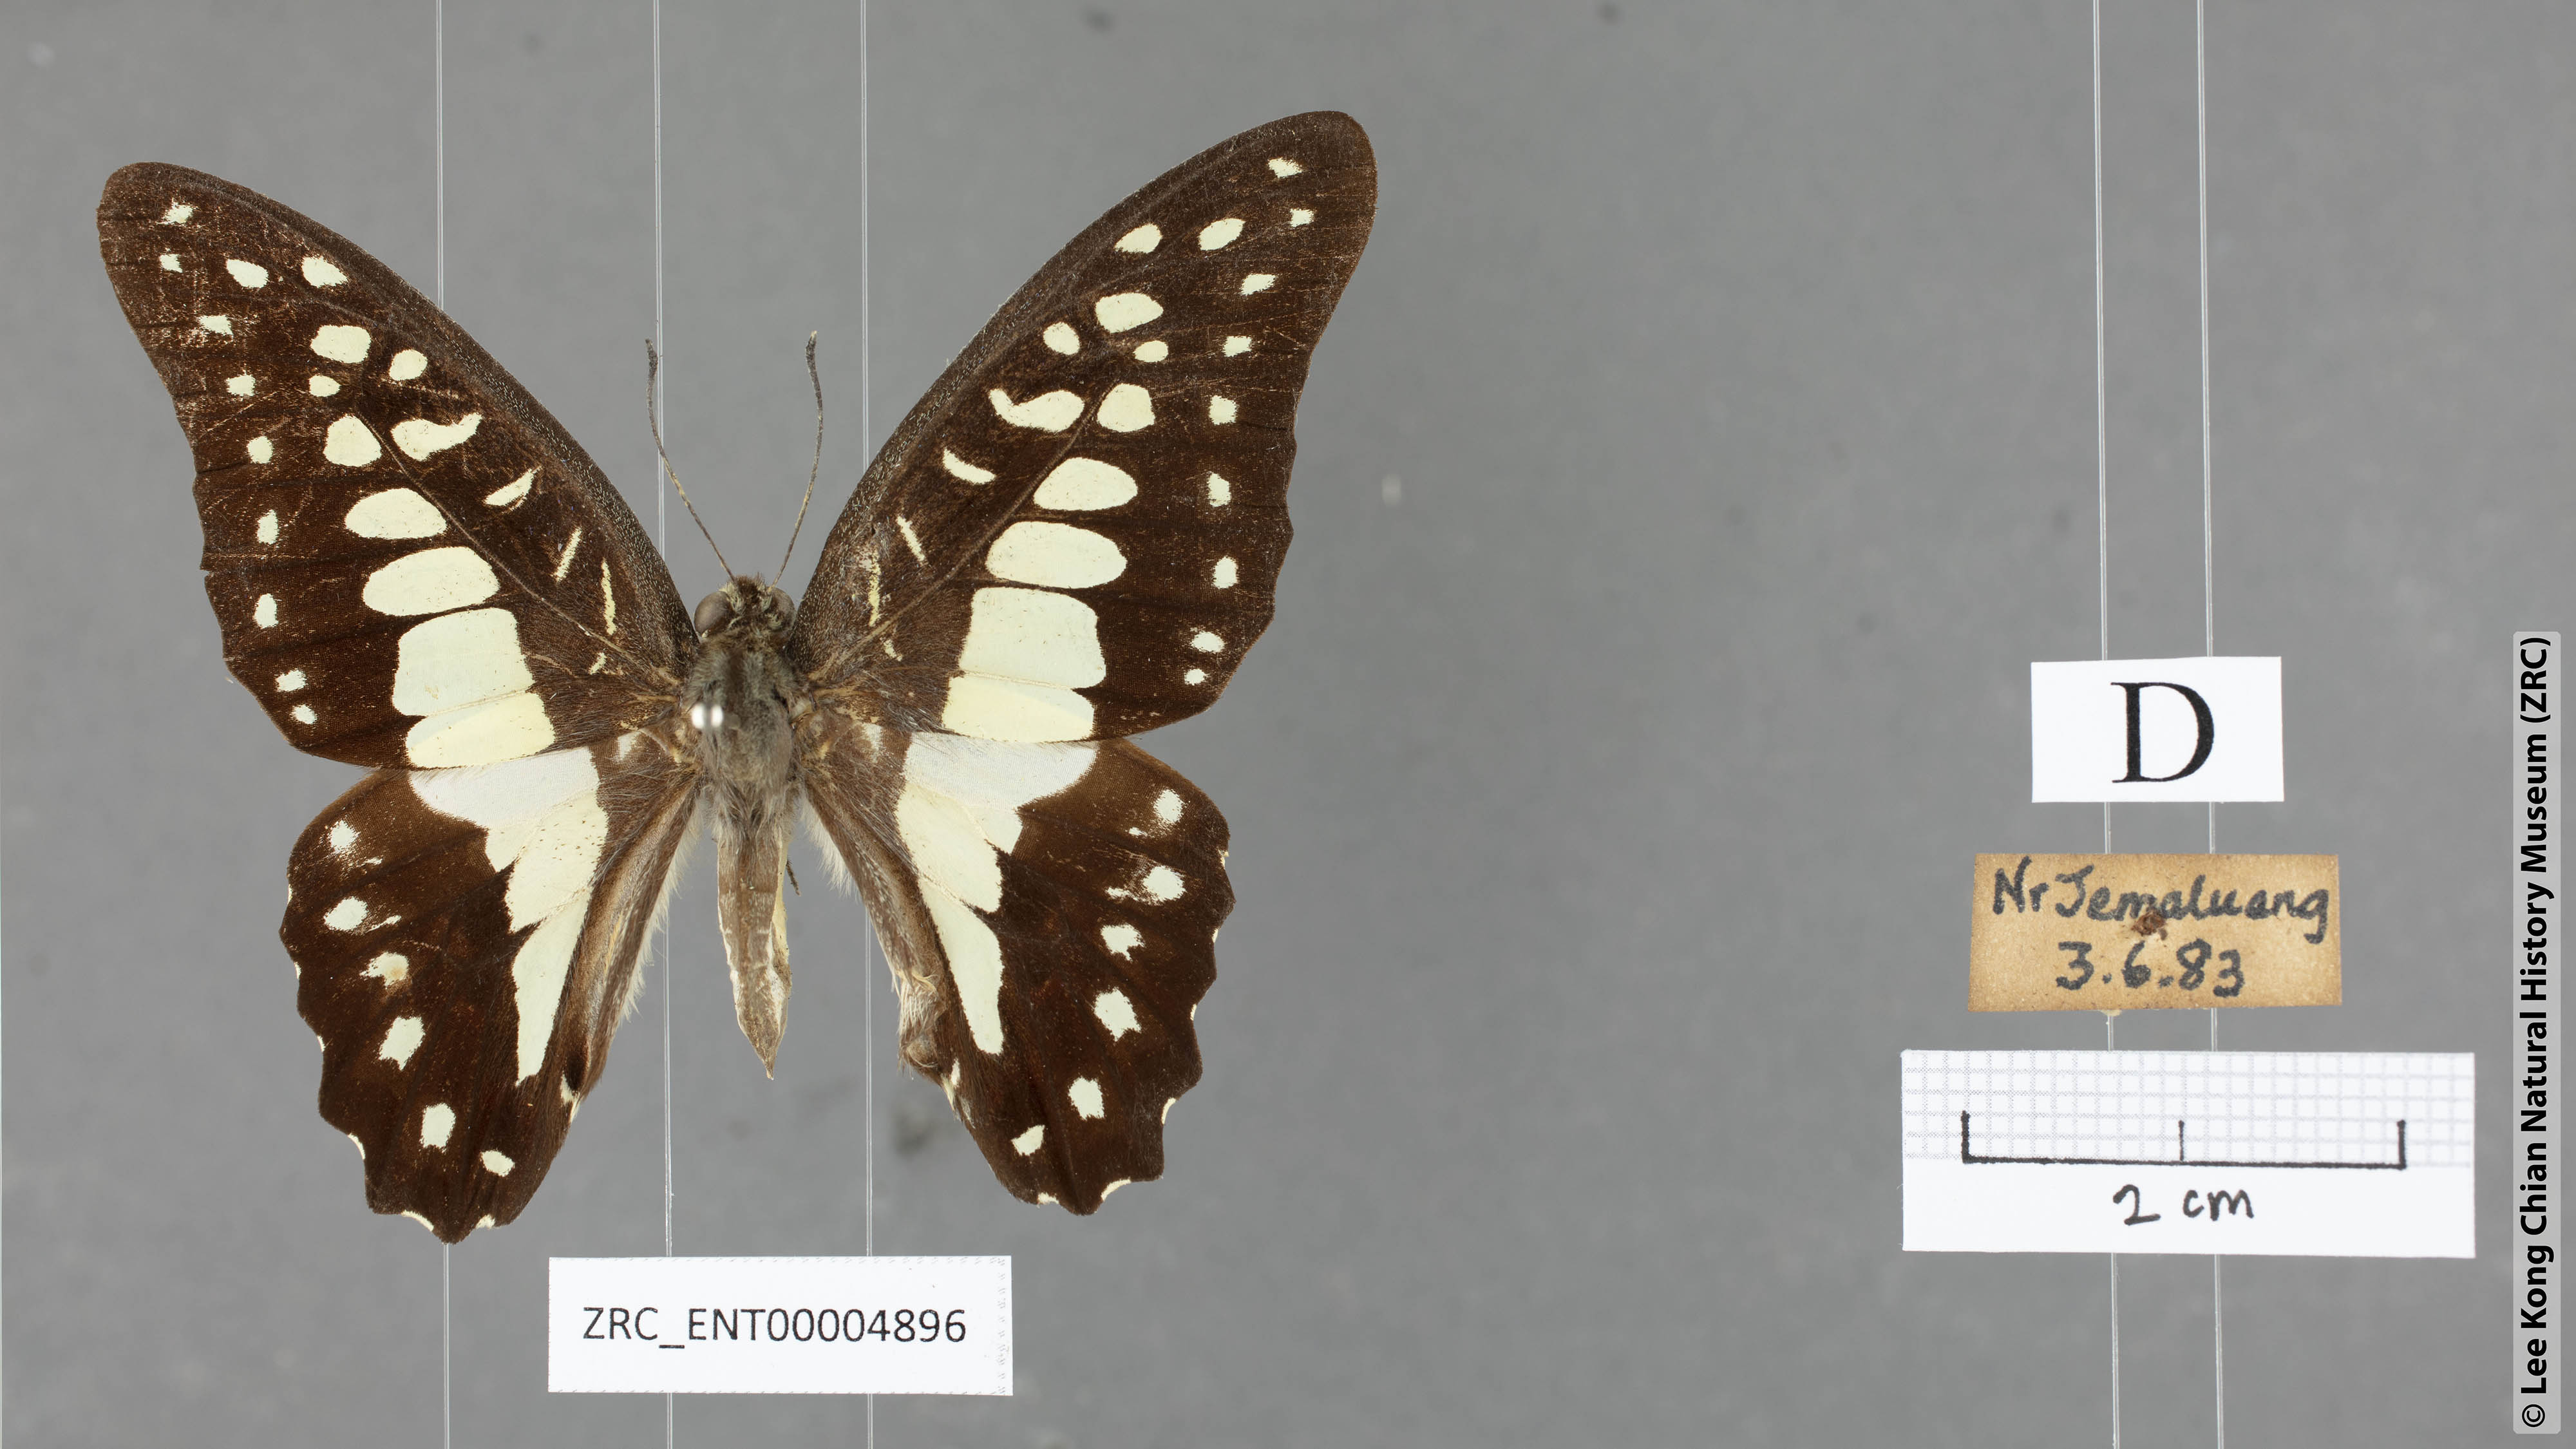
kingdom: Animalia
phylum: Arthropoda
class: Insecta
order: Lepidoptera
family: Papilionidae
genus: Graphium
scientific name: Graphium eurypylus
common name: Great jay
